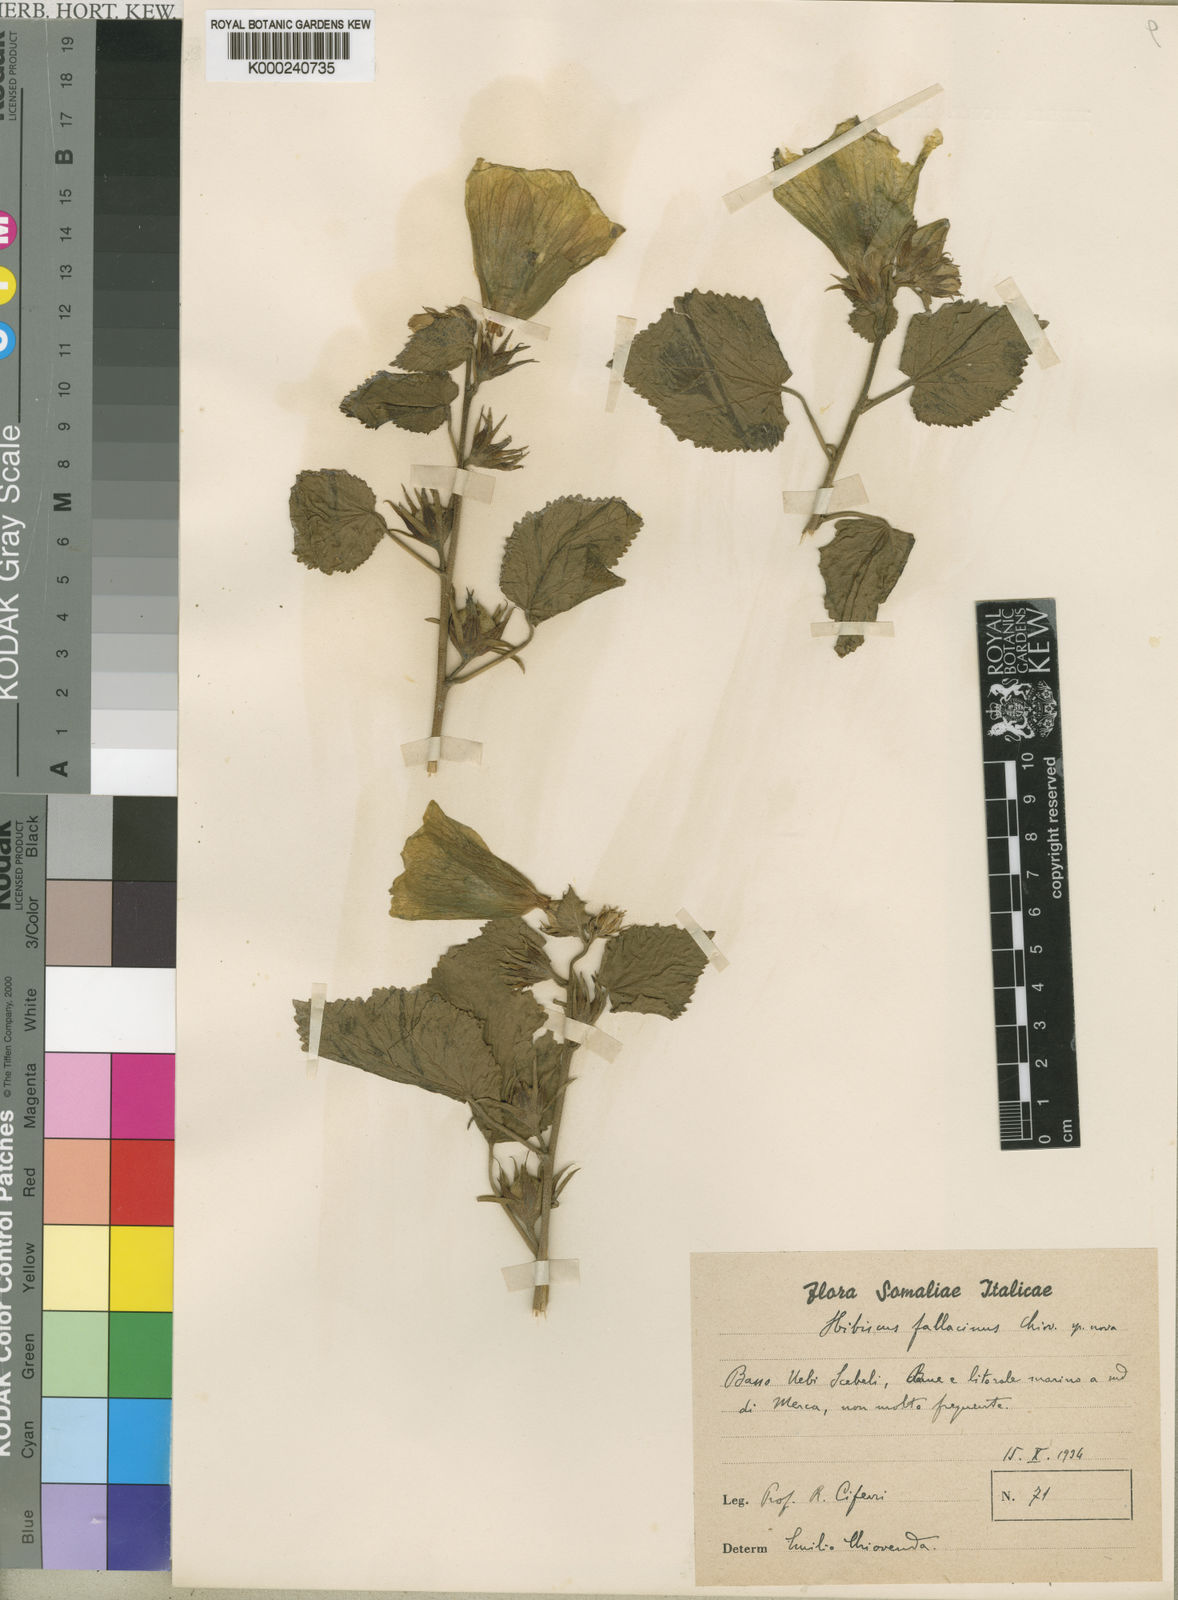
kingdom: Plantae
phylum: Tracheophyta
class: Magnoliopsida
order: Malvales
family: Malvaceae
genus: Hibiscus
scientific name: Hibiscus dongolensis
